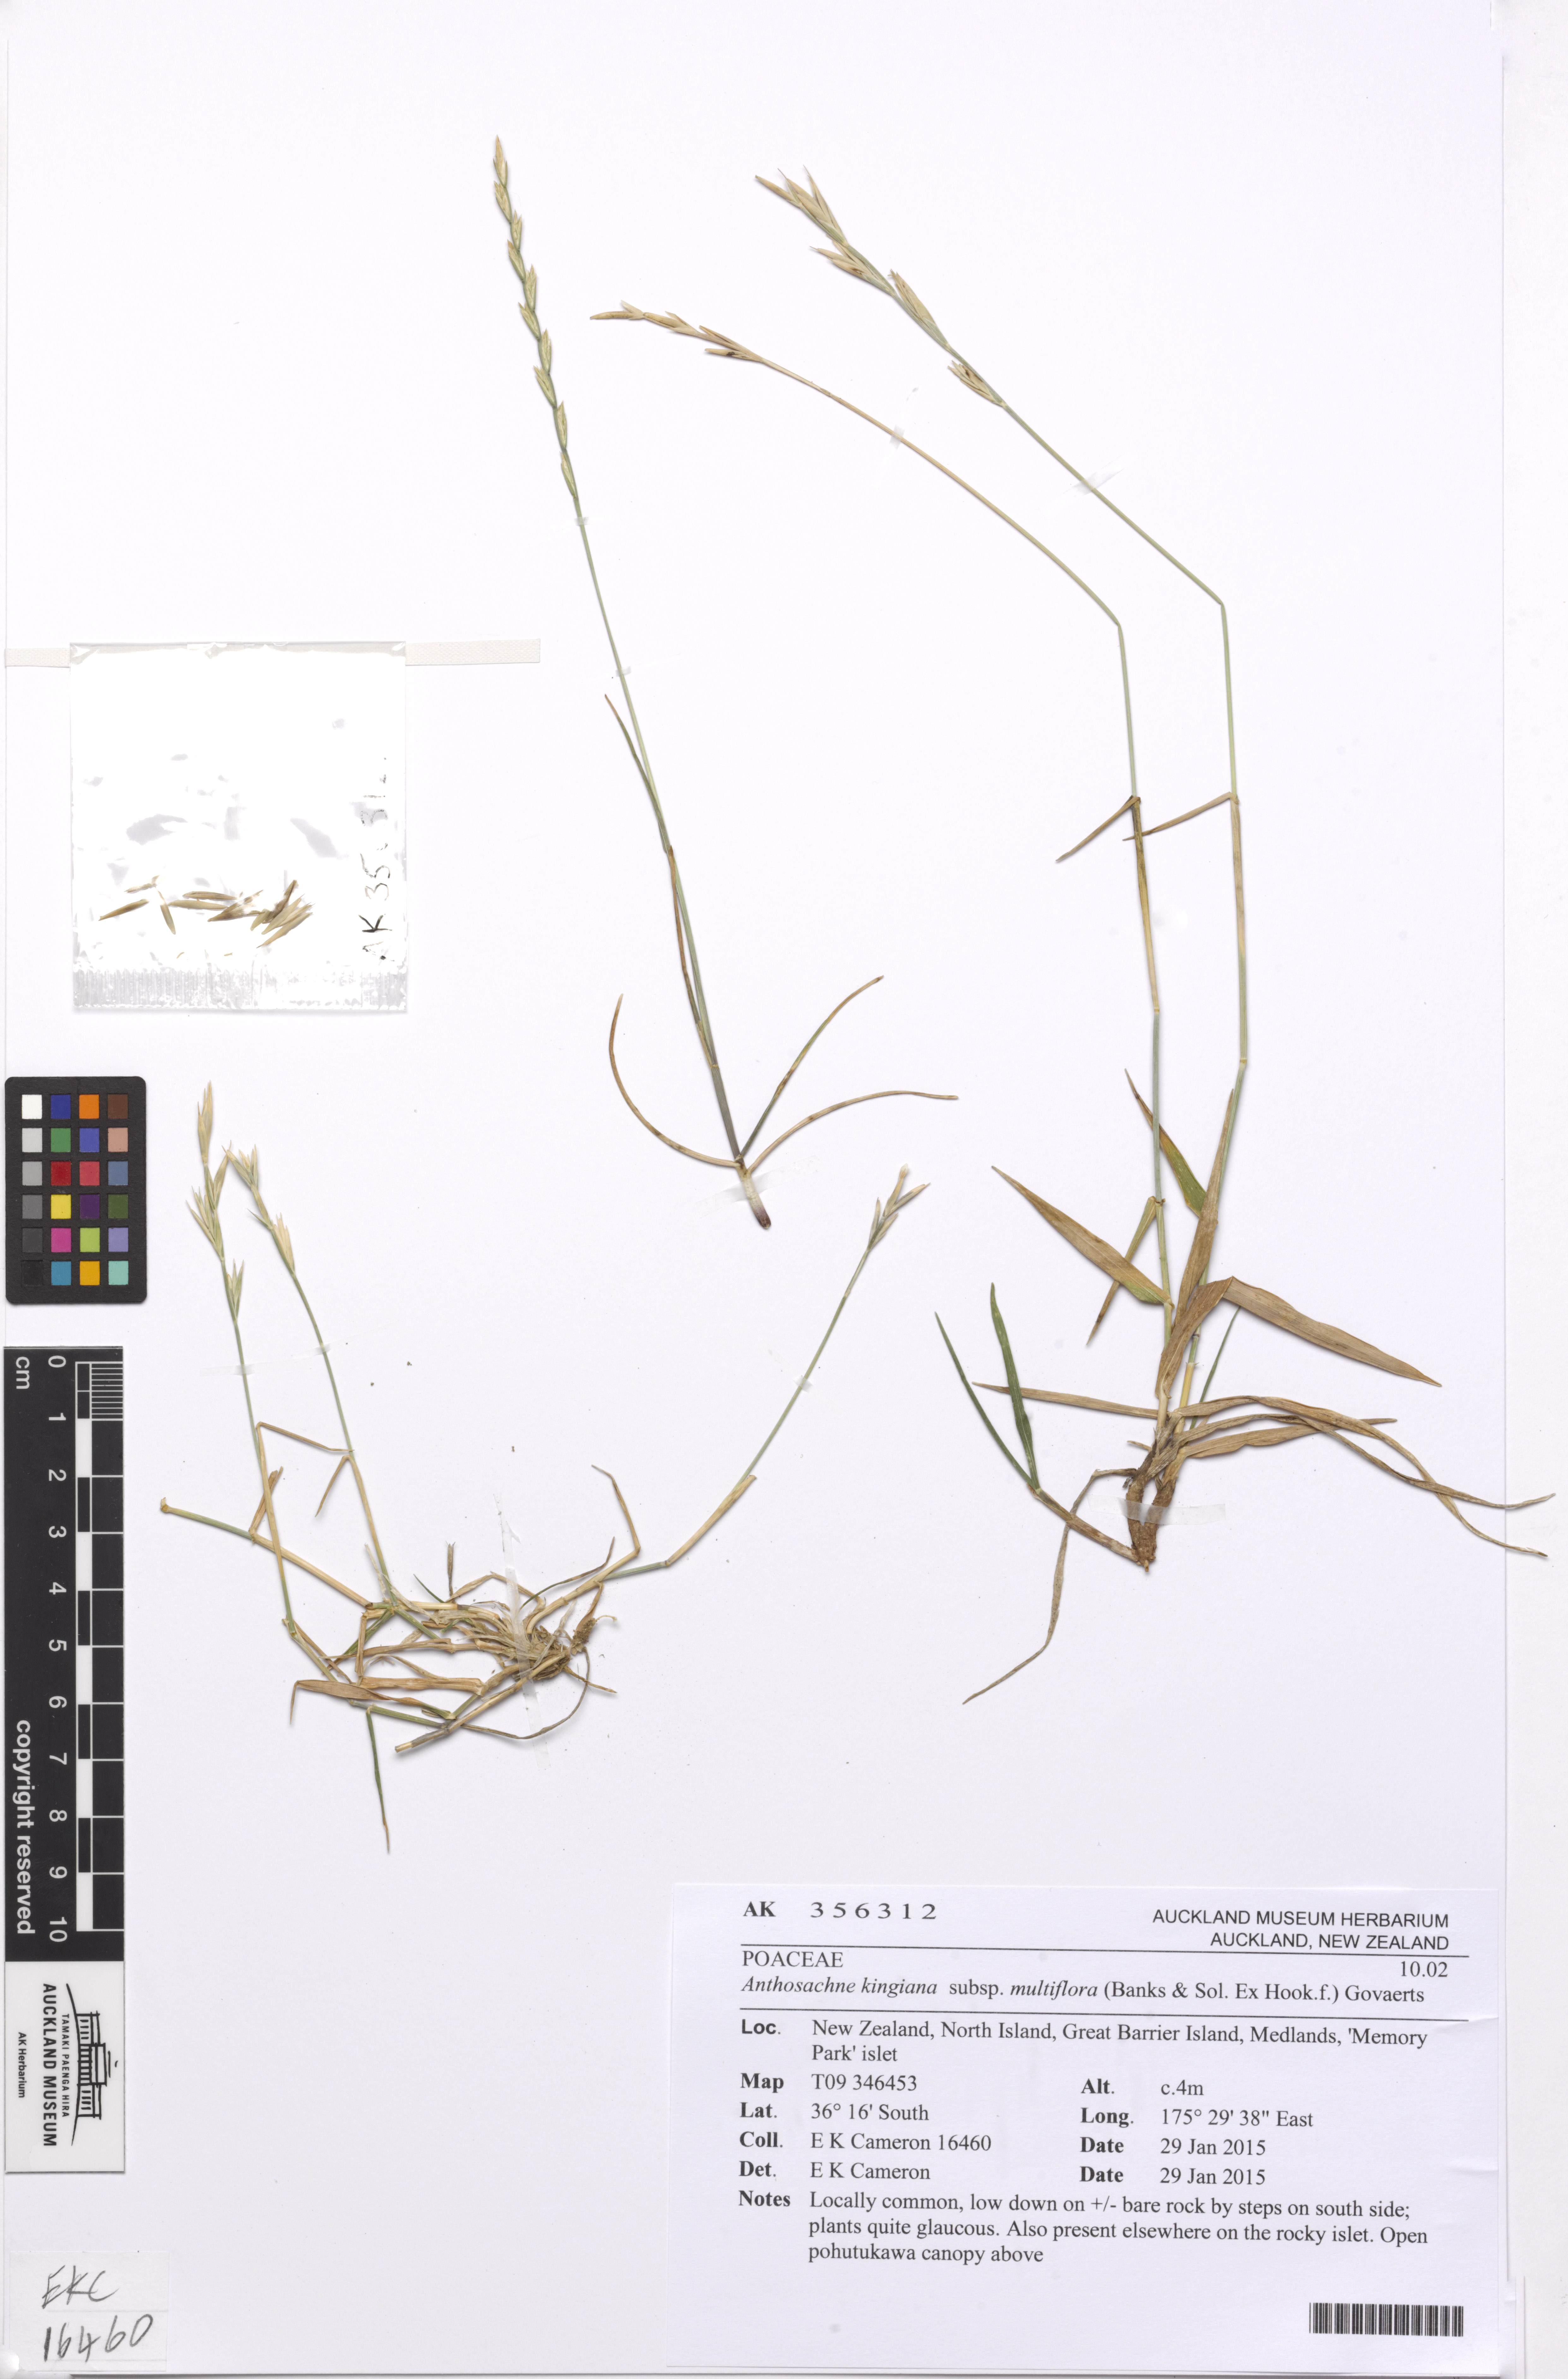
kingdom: Plantae
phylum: Tracheophyta
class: Liliopsida
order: Poales
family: Poaceae
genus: Anthosachne
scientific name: Anthosachne kingiana
